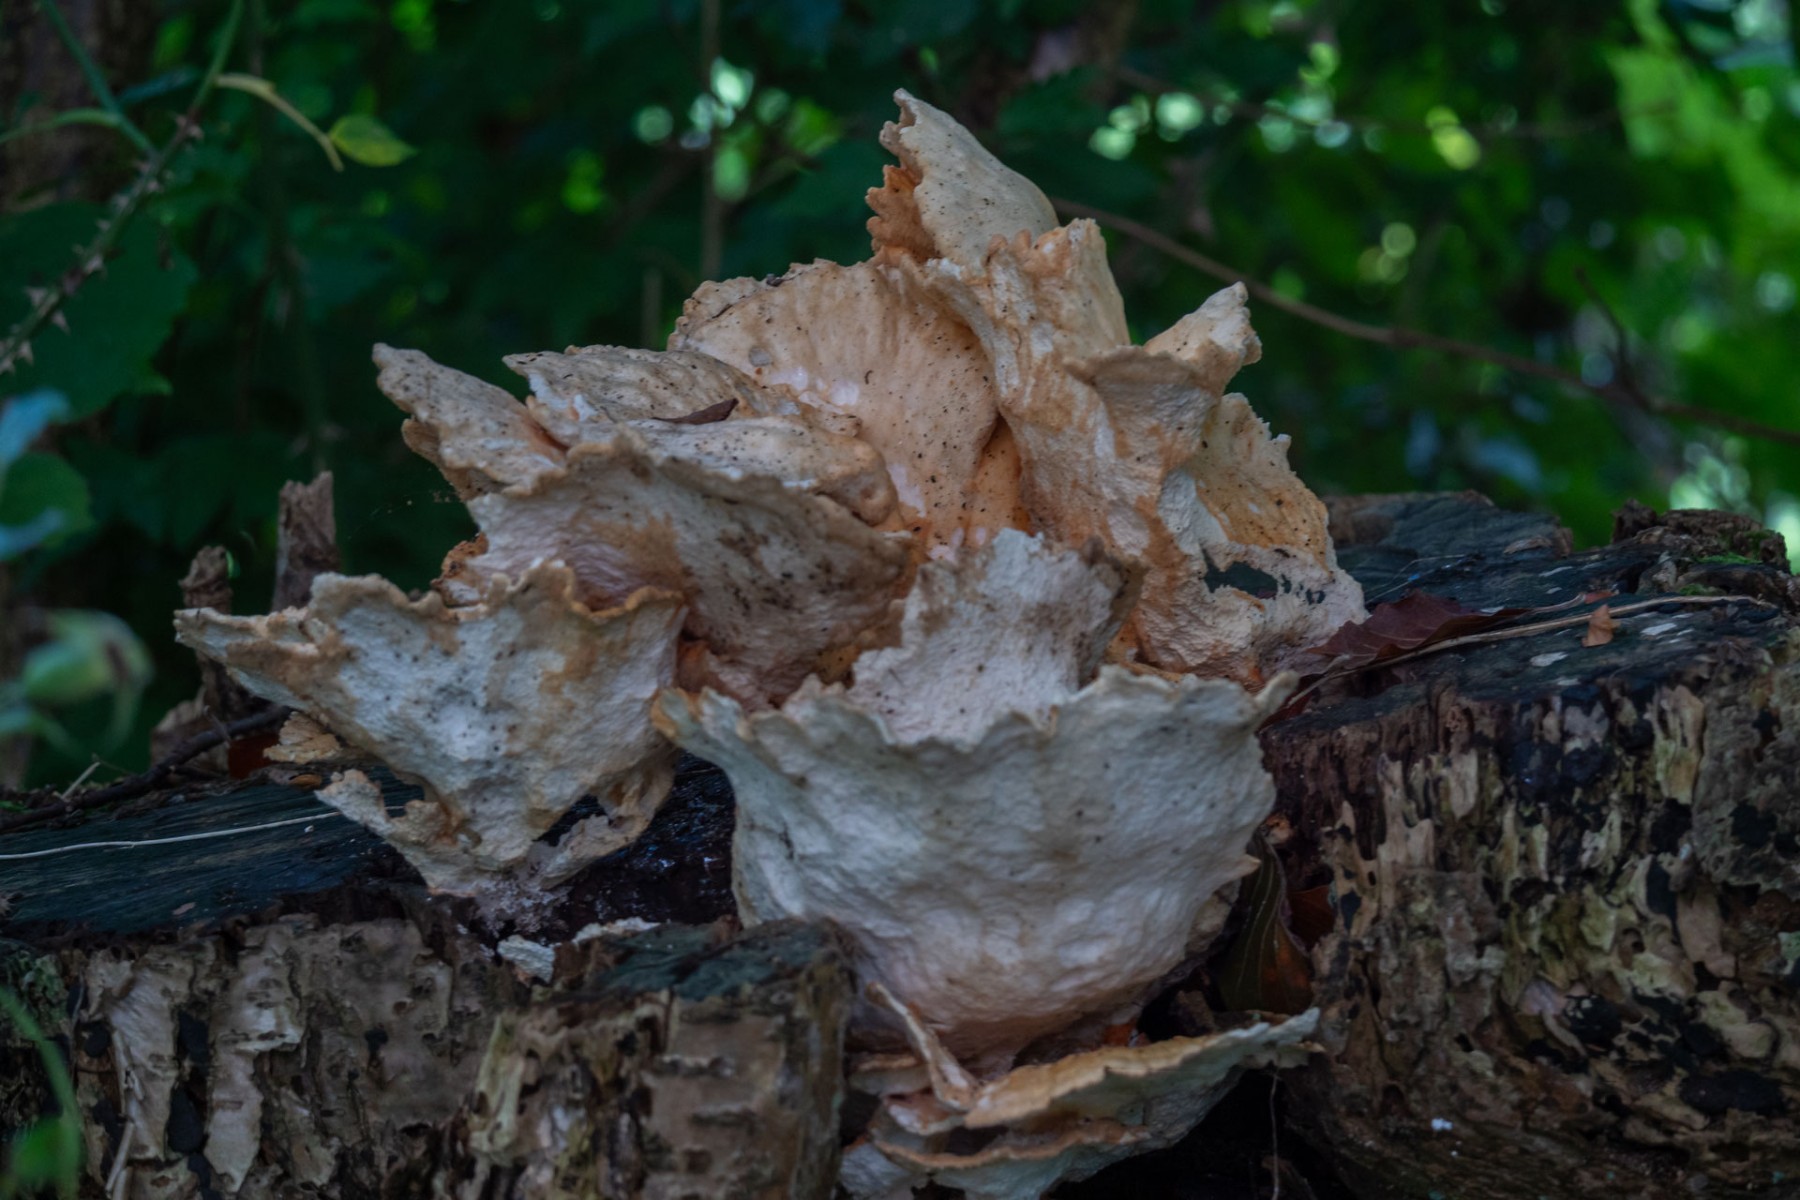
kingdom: Fungi
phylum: Basidiomycota
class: Agaricomycetes
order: Polyporales
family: Laetiporaceae
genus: Laetiporus
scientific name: Laetiporus sulphureus
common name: svovlporesvamp
